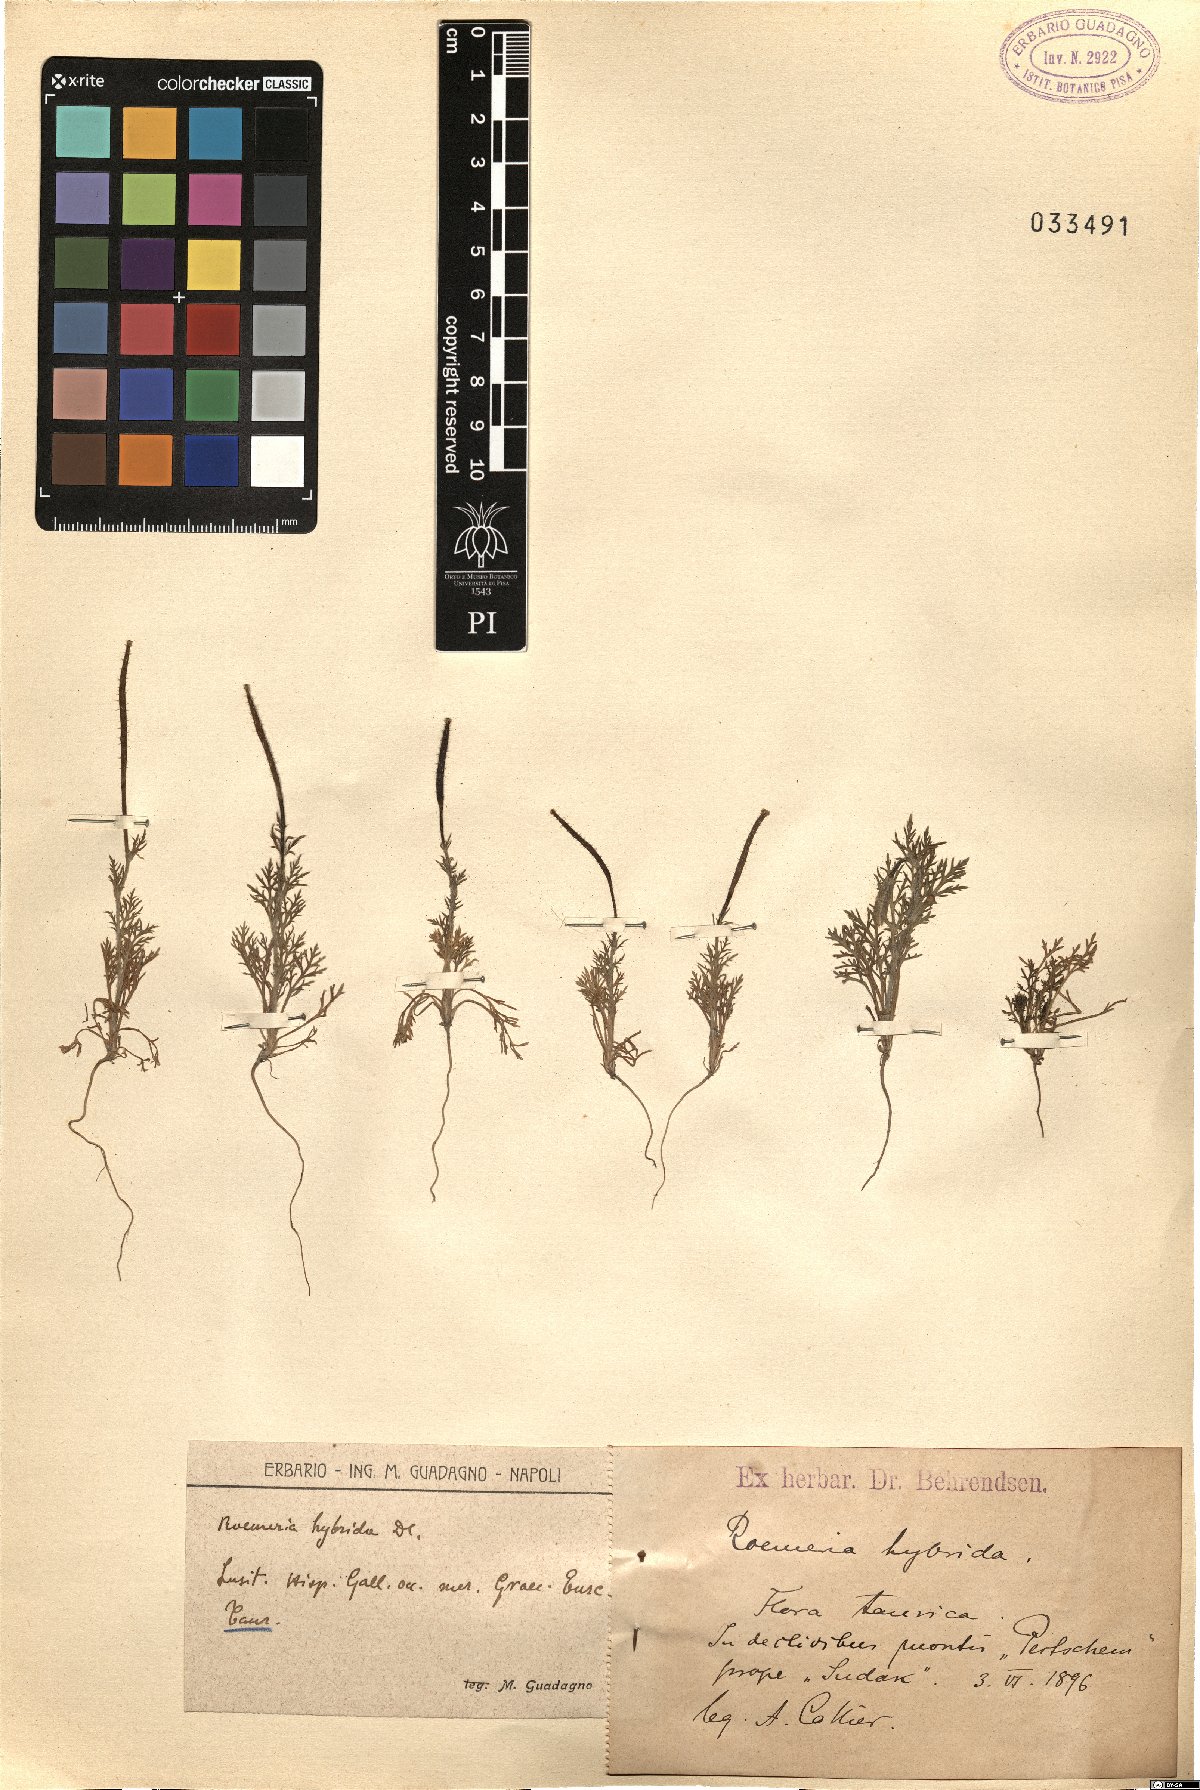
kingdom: Plantae
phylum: Tracheophyta
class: Magnoliopsida
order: Ranunculales
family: Papaveraceae
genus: Roemeria
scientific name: Roemeria hybrida
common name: Violet horned-poppy
